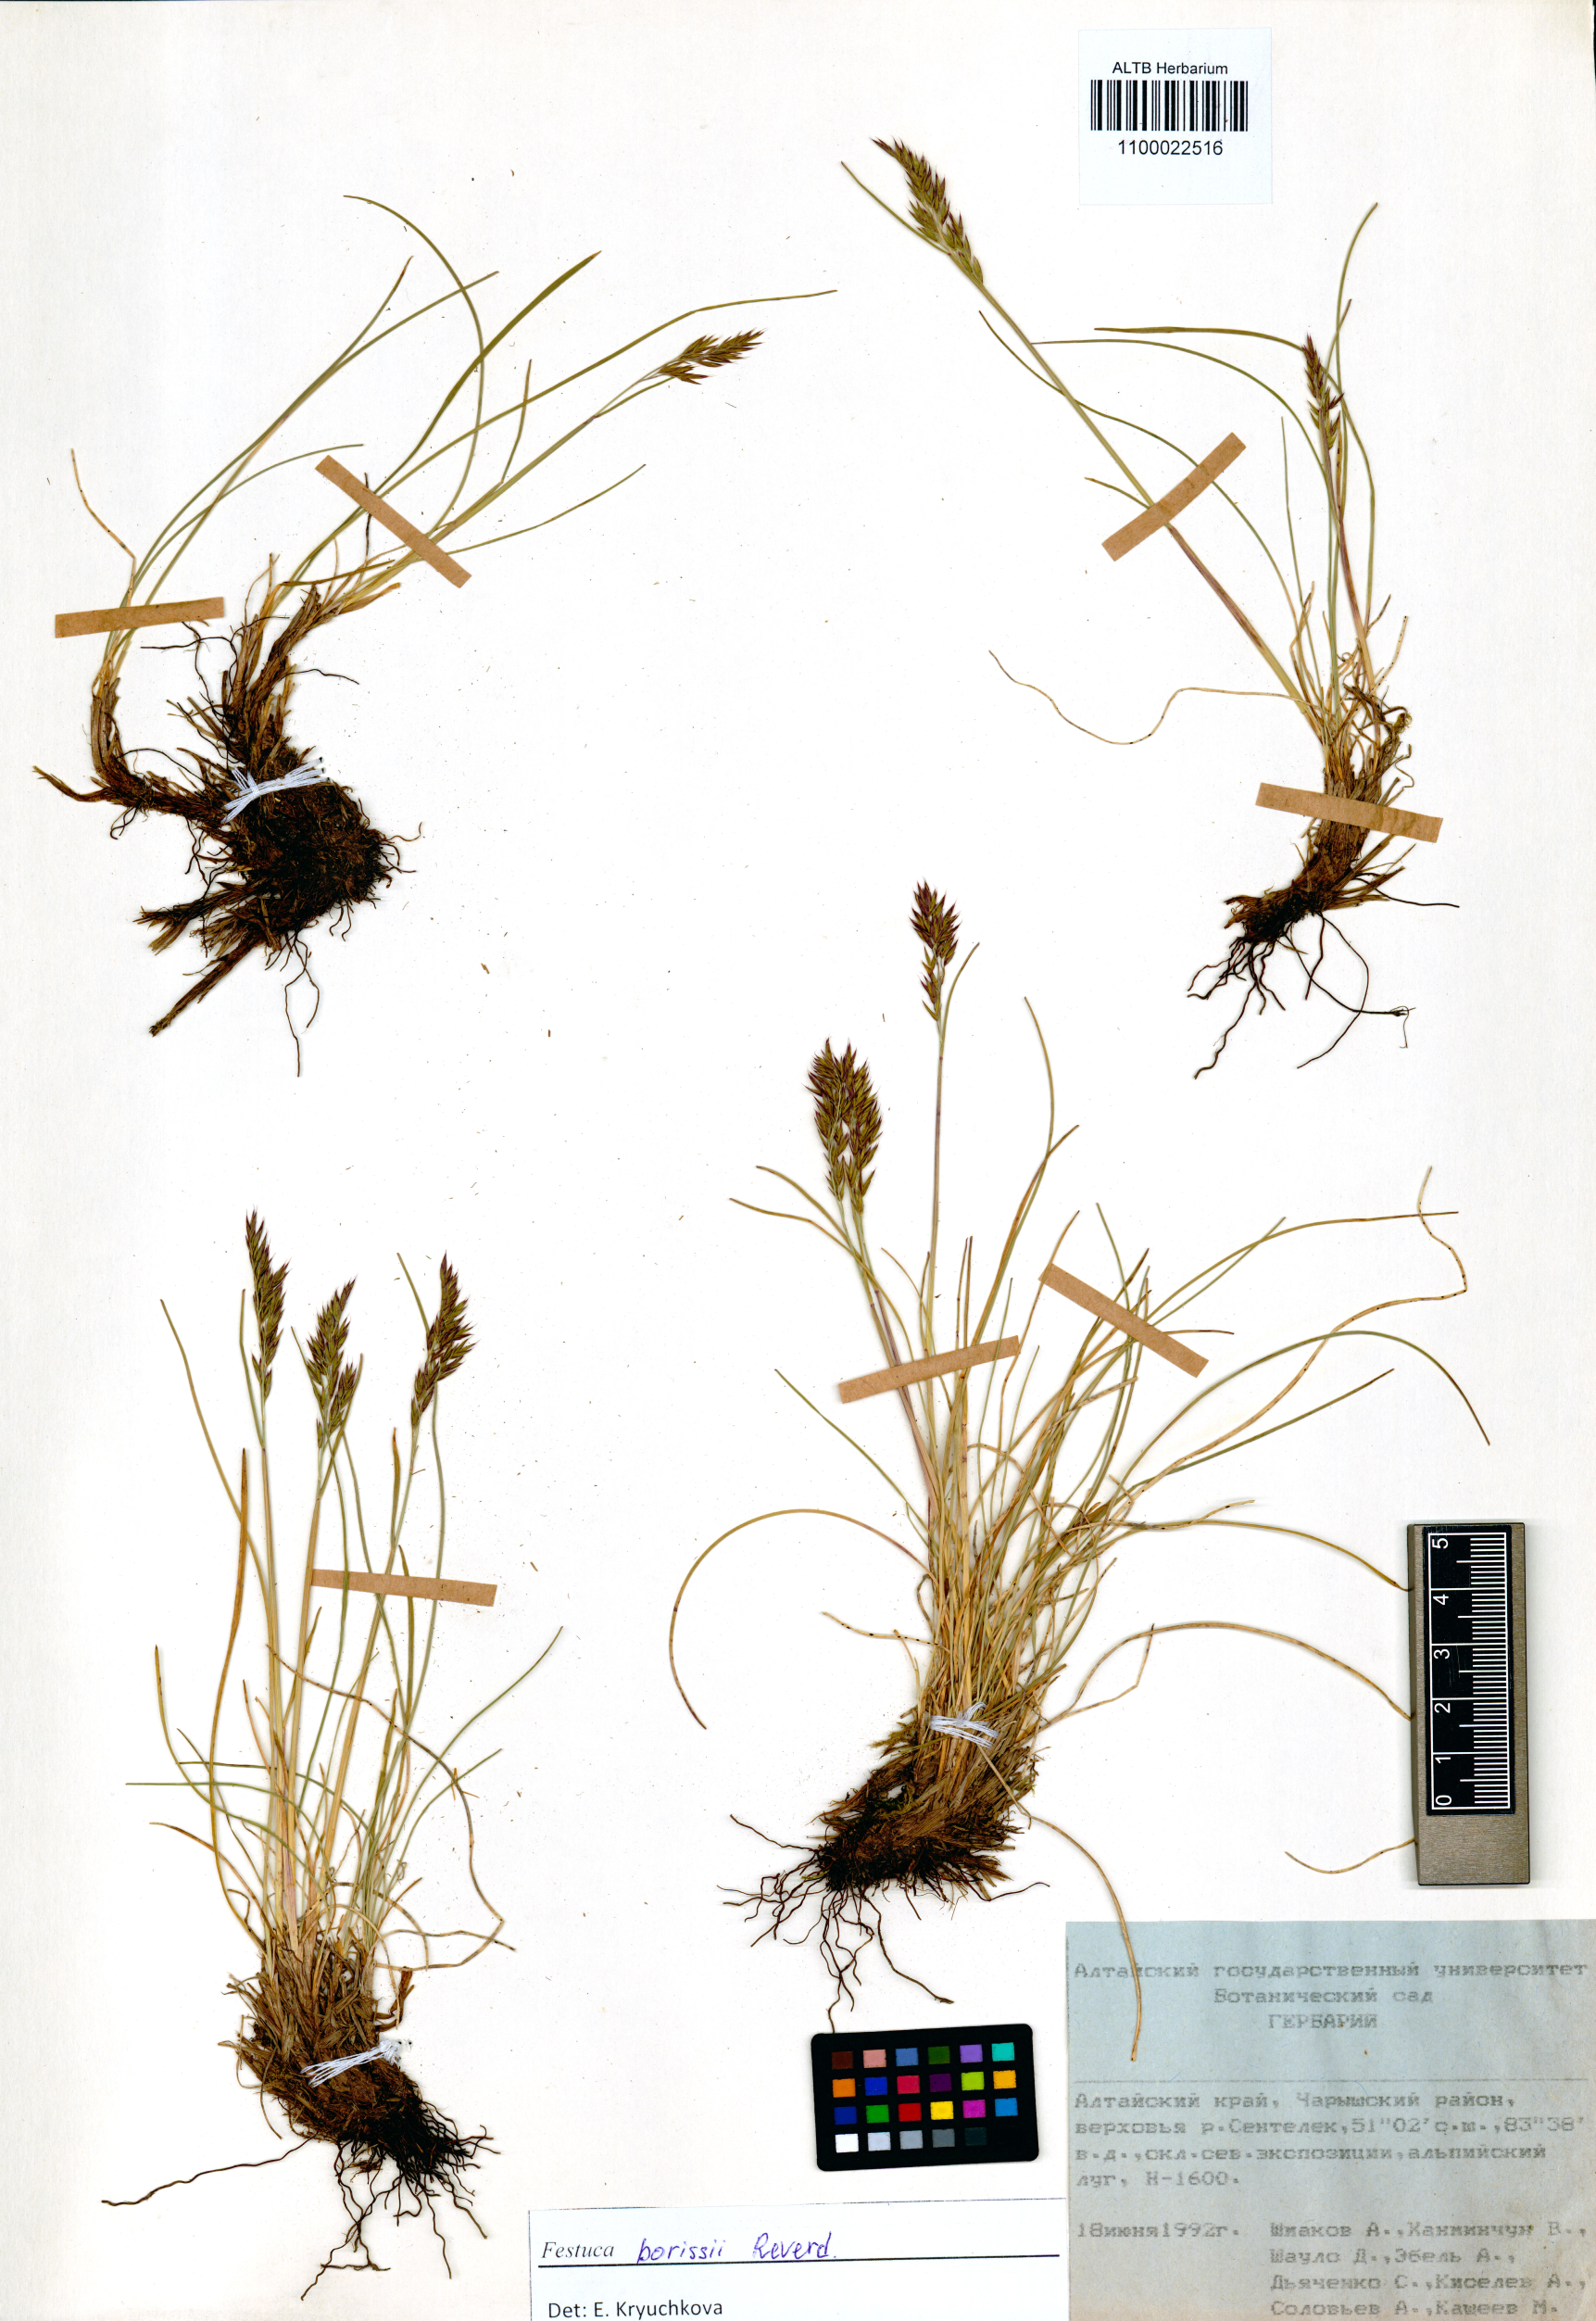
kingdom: Plantae
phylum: Tracheophyta
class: Liliopsida
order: Poales
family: Poaceae
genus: Festuca
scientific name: Festuca borissii
